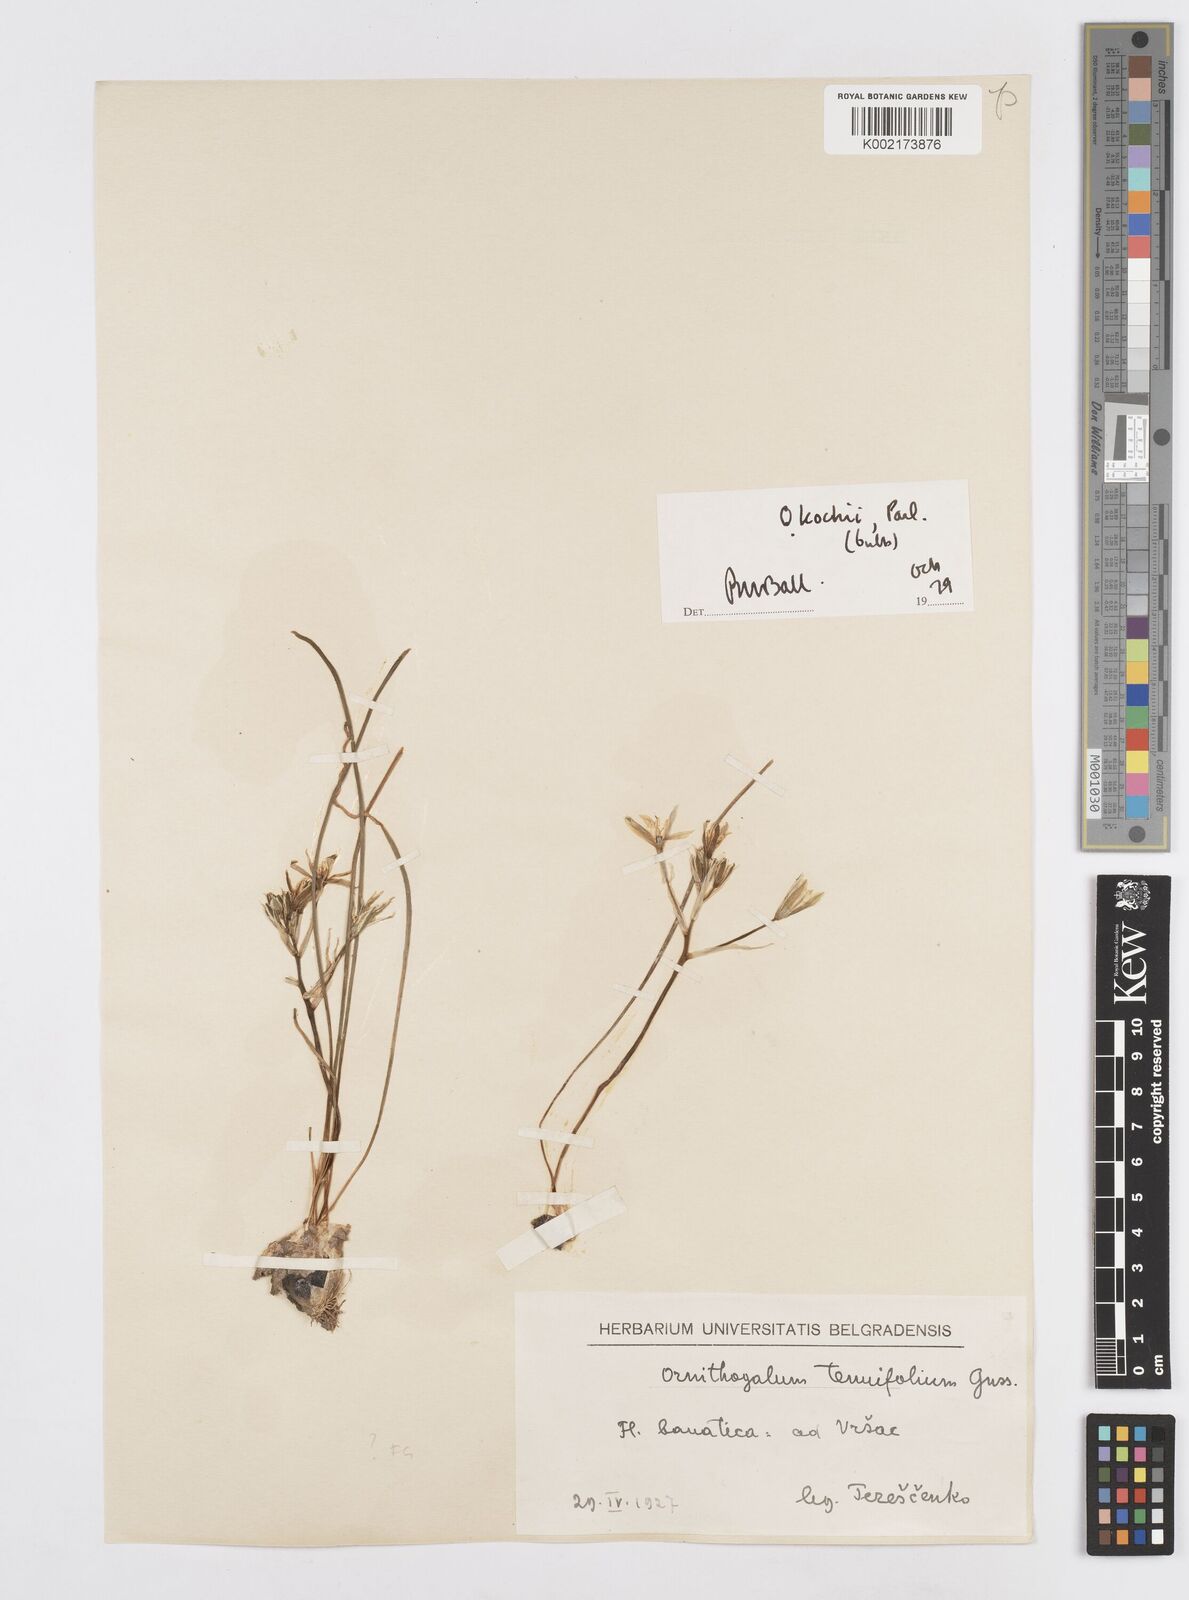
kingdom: Plantae
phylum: Tracheophyta
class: Liliopsida
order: Asparagales
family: Asparagaceae
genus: Ornithogalum
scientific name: Ornithogalum orthophyllum
